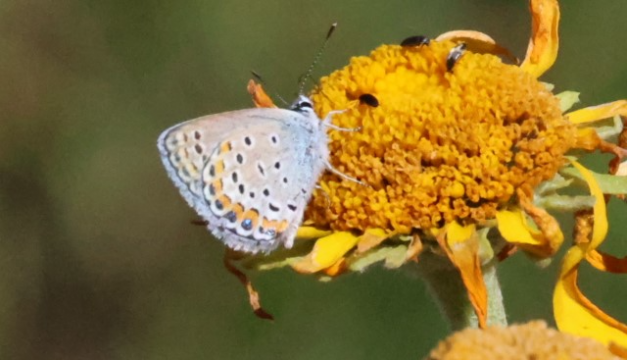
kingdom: Animalia
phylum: Arthropoda
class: Insecta
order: Lepidoptera
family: Lycaenidae
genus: Lycaeides
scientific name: Lycaeides melissa
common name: Melissa Blue
